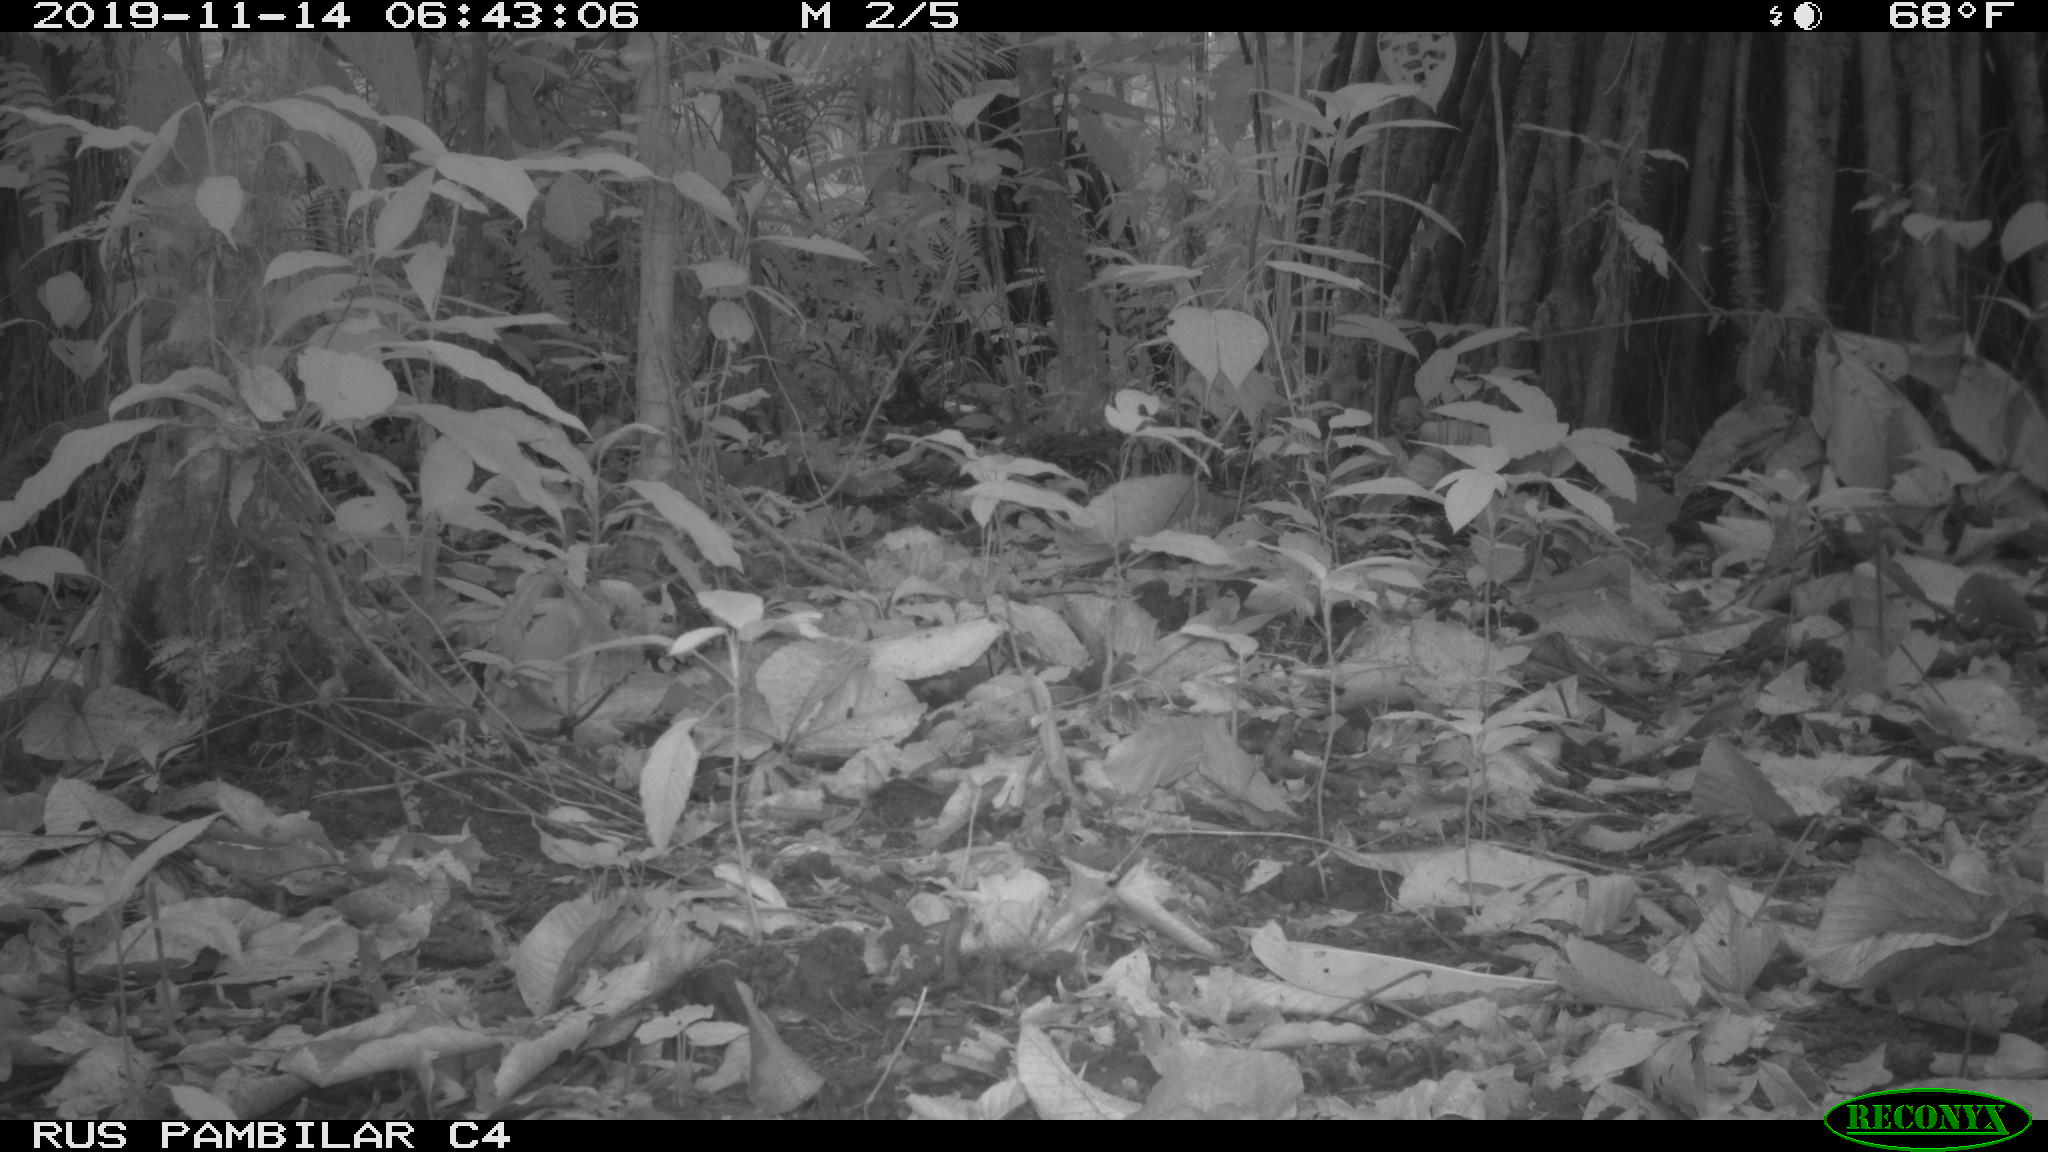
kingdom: Animalia
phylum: Chordata
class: Mammalia
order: Rodentia
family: Dasyproctidae
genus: Dasyprocta
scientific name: Dasyprocta punctata
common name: Central american agouti
